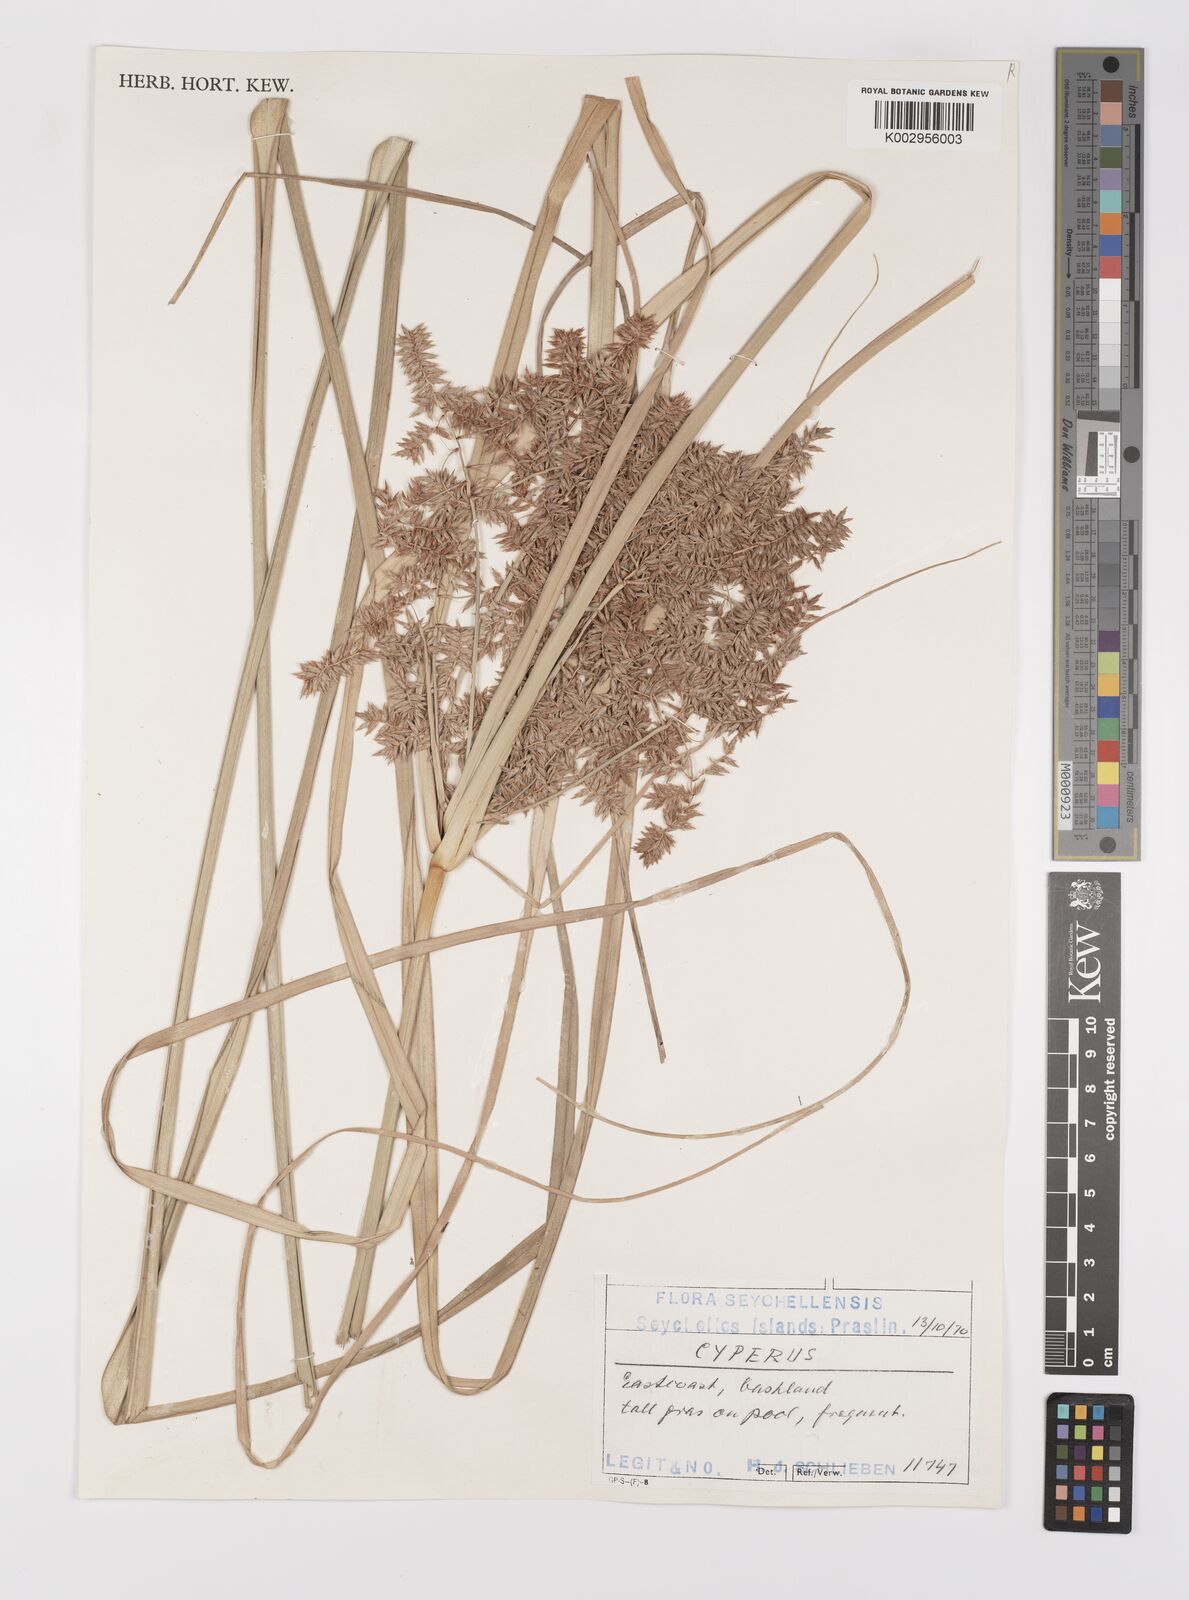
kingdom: Plantae
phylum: Tracheophyta
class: Liliopsida
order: Poales
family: Cyperaceae
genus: Cyperus
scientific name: Cyperus javanicus
